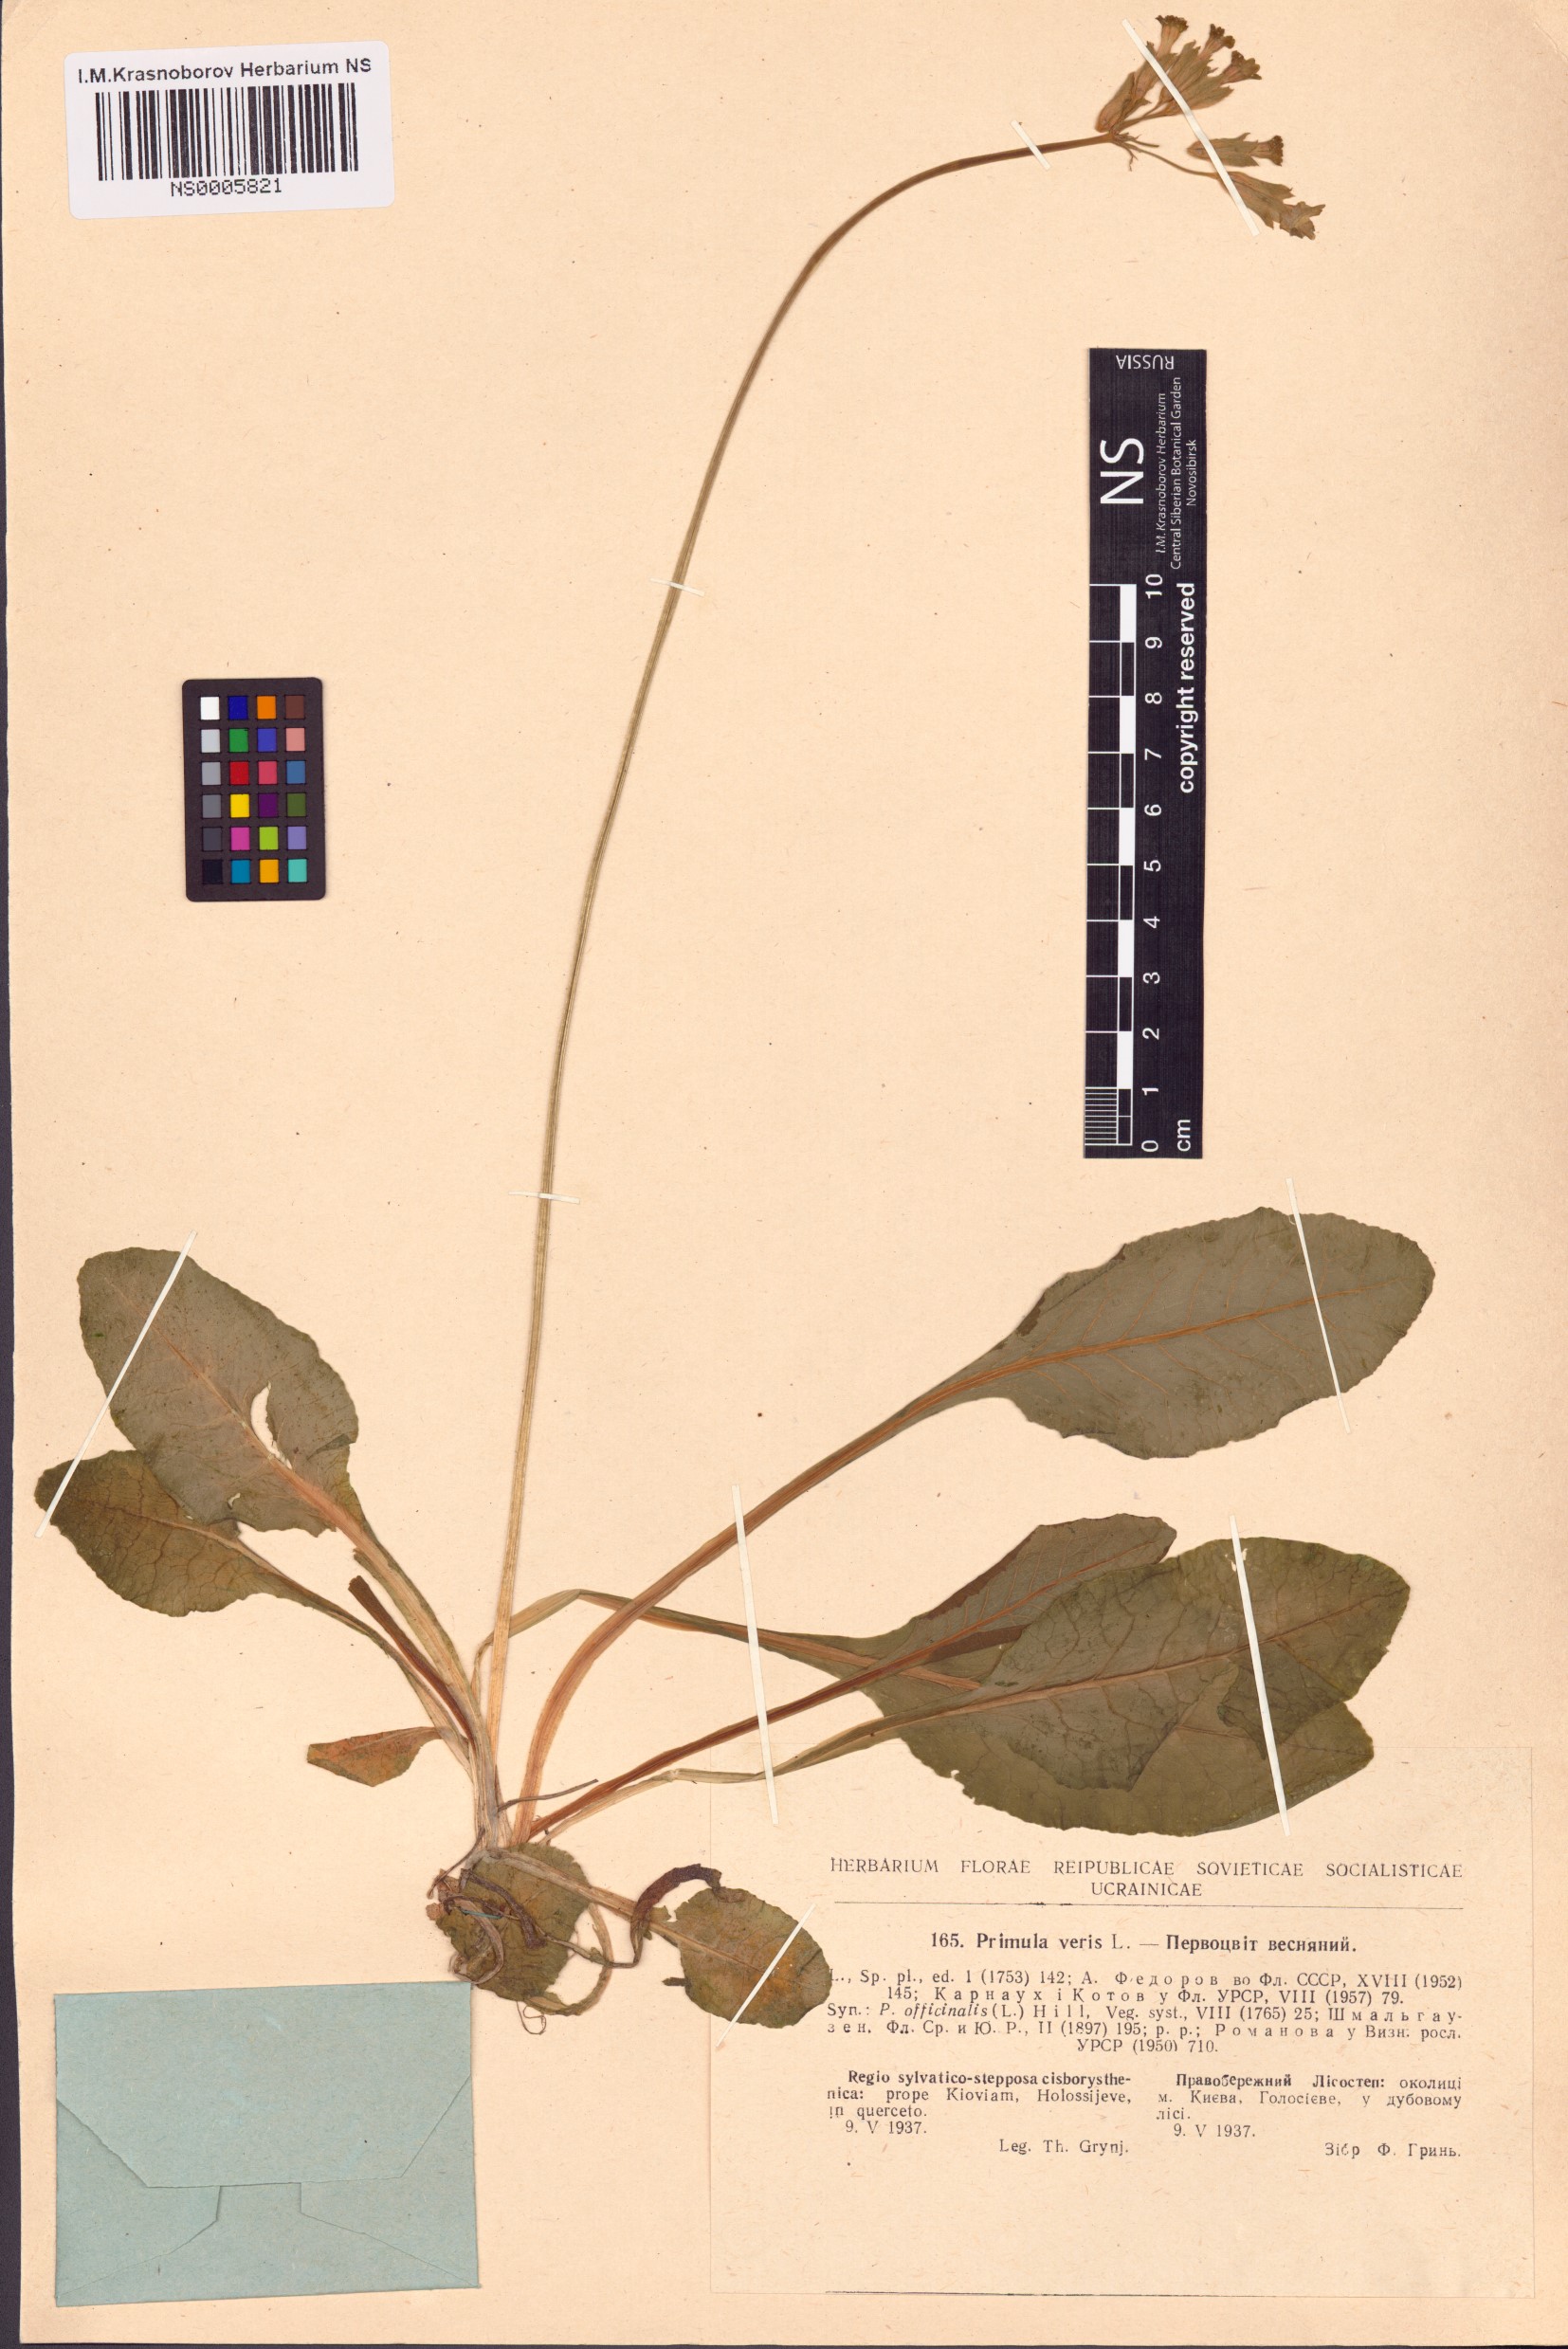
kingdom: Plantae
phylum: Tracheophyta
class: Magnoliopsida
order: Ericales
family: Primulaceae
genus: Primula
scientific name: Primula veris
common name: Cowslip
